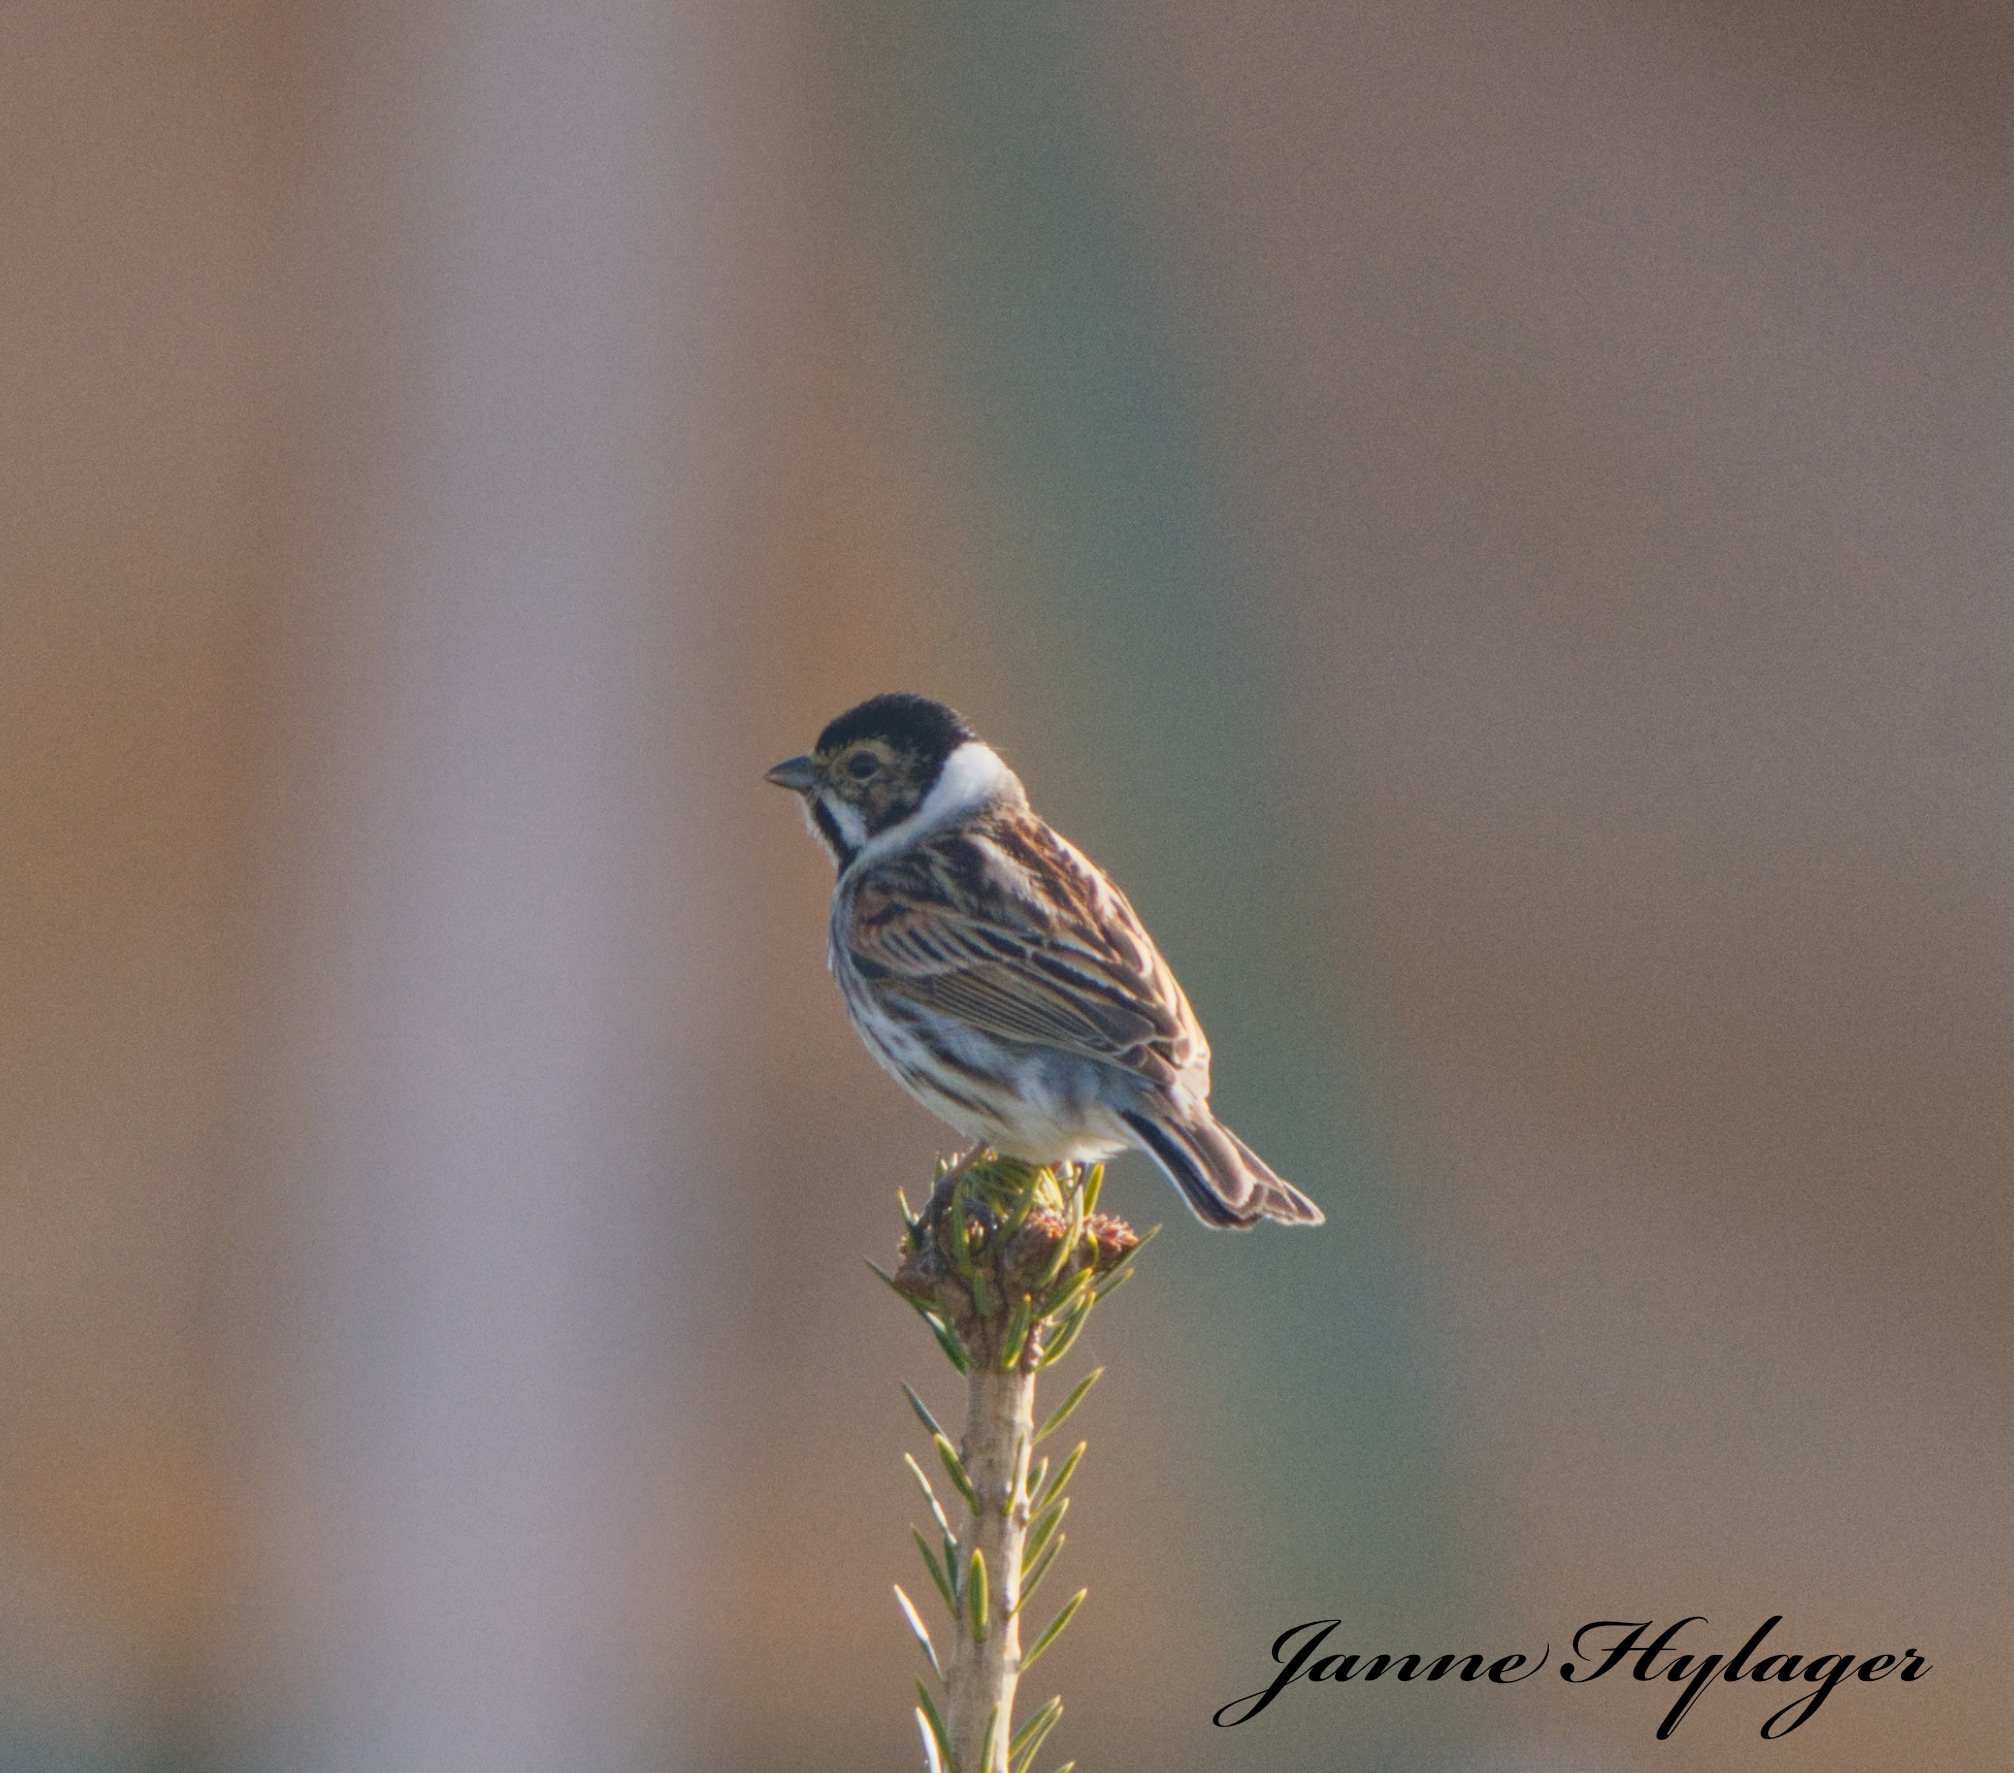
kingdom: Animalia
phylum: Chordata
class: Aves
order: Passeriformes
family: Emberizidae
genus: Emberiza
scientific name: Emberiza schoeniclus
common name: Rørspurv
